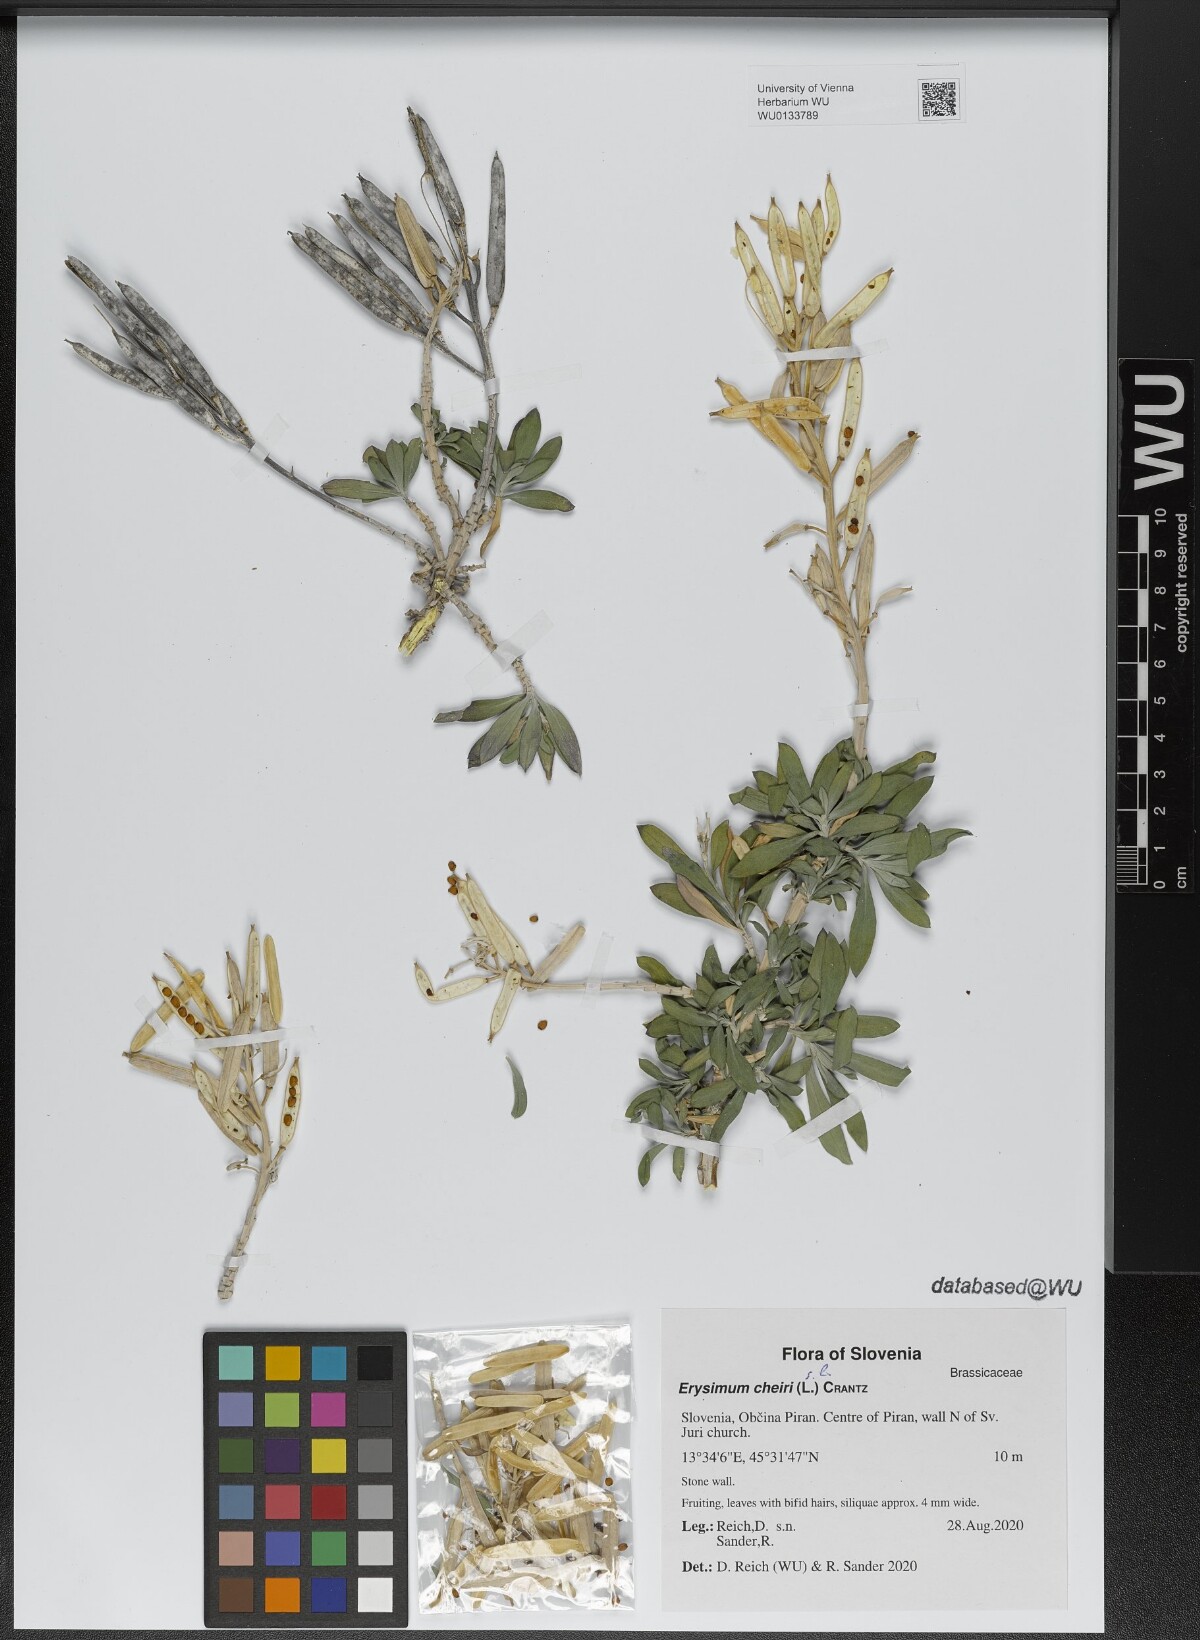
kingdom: Plantae
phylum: Tracheophyta
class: Magnoliopsida
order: Brassicales
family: Brassicaceae
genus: Erysimum
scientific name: Erysimum cheiri
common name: Wallflower
